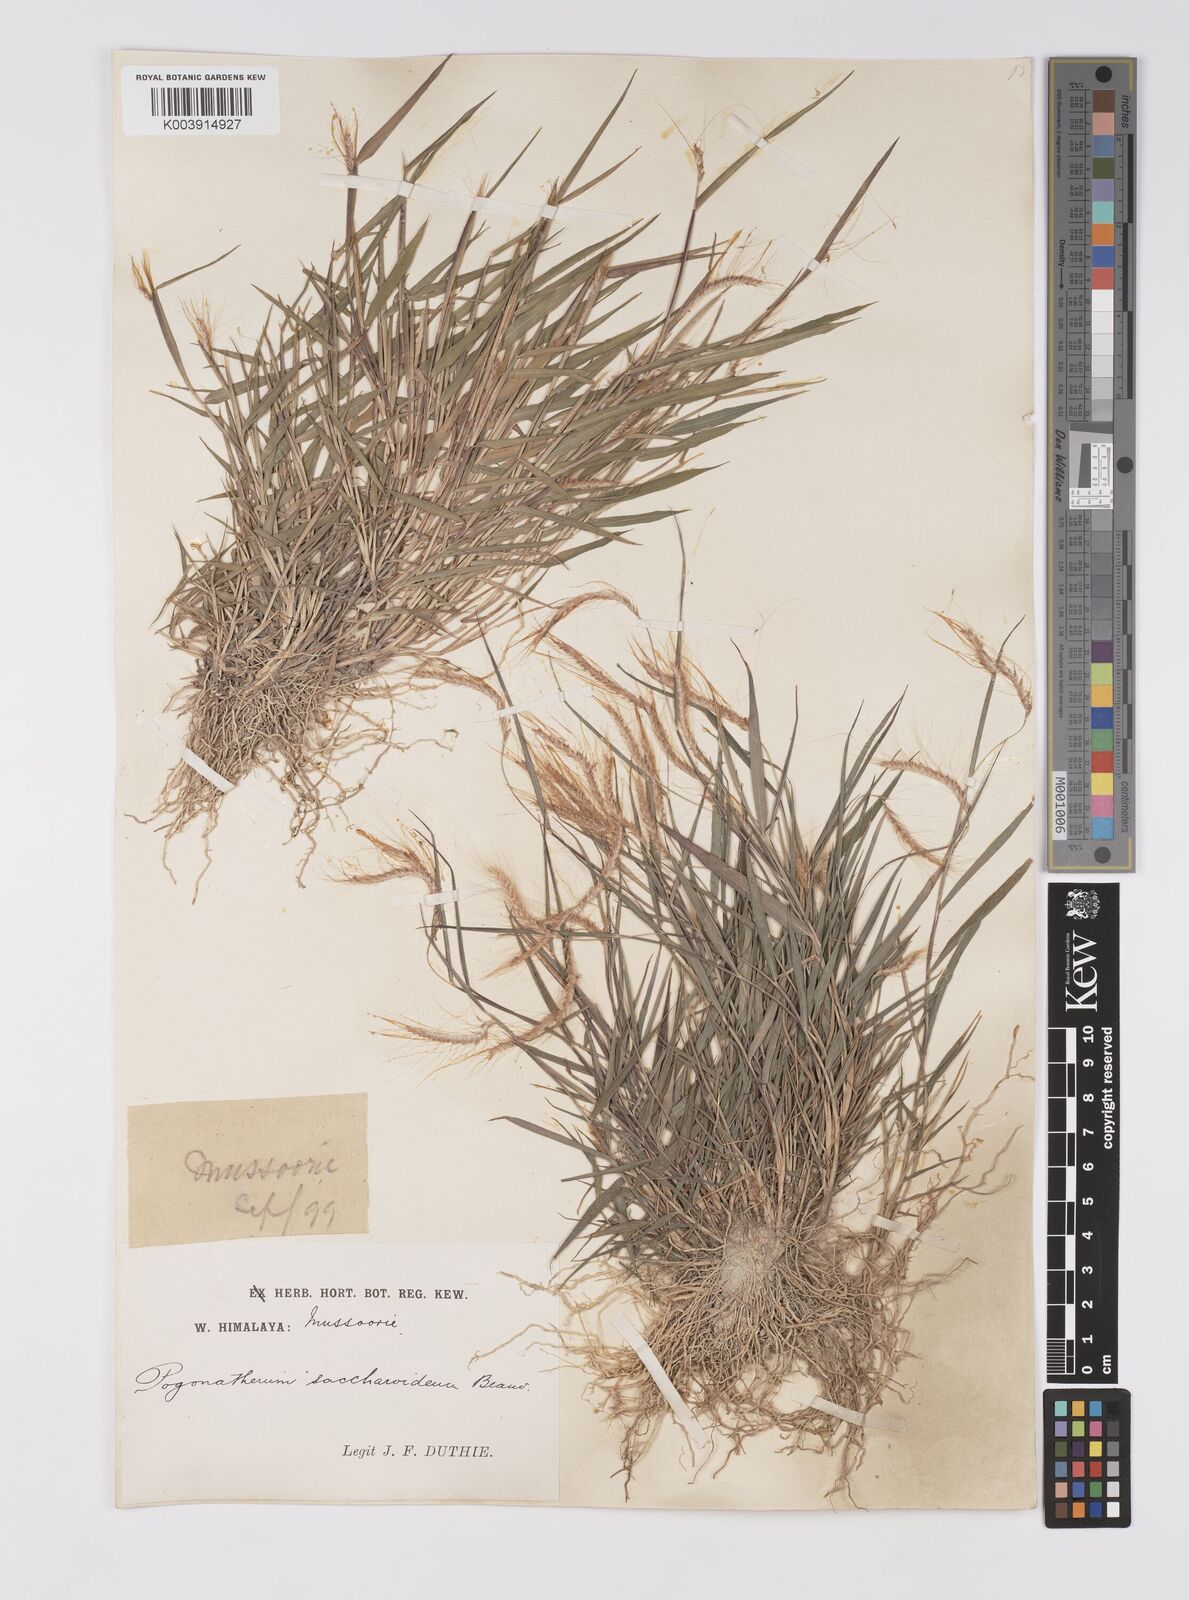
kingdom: Plantae
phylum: Tracheophyta
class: Liliopsida
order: Poales
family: Poaceae
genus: Pogonatherum
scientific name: Pogonatherum paniceum
